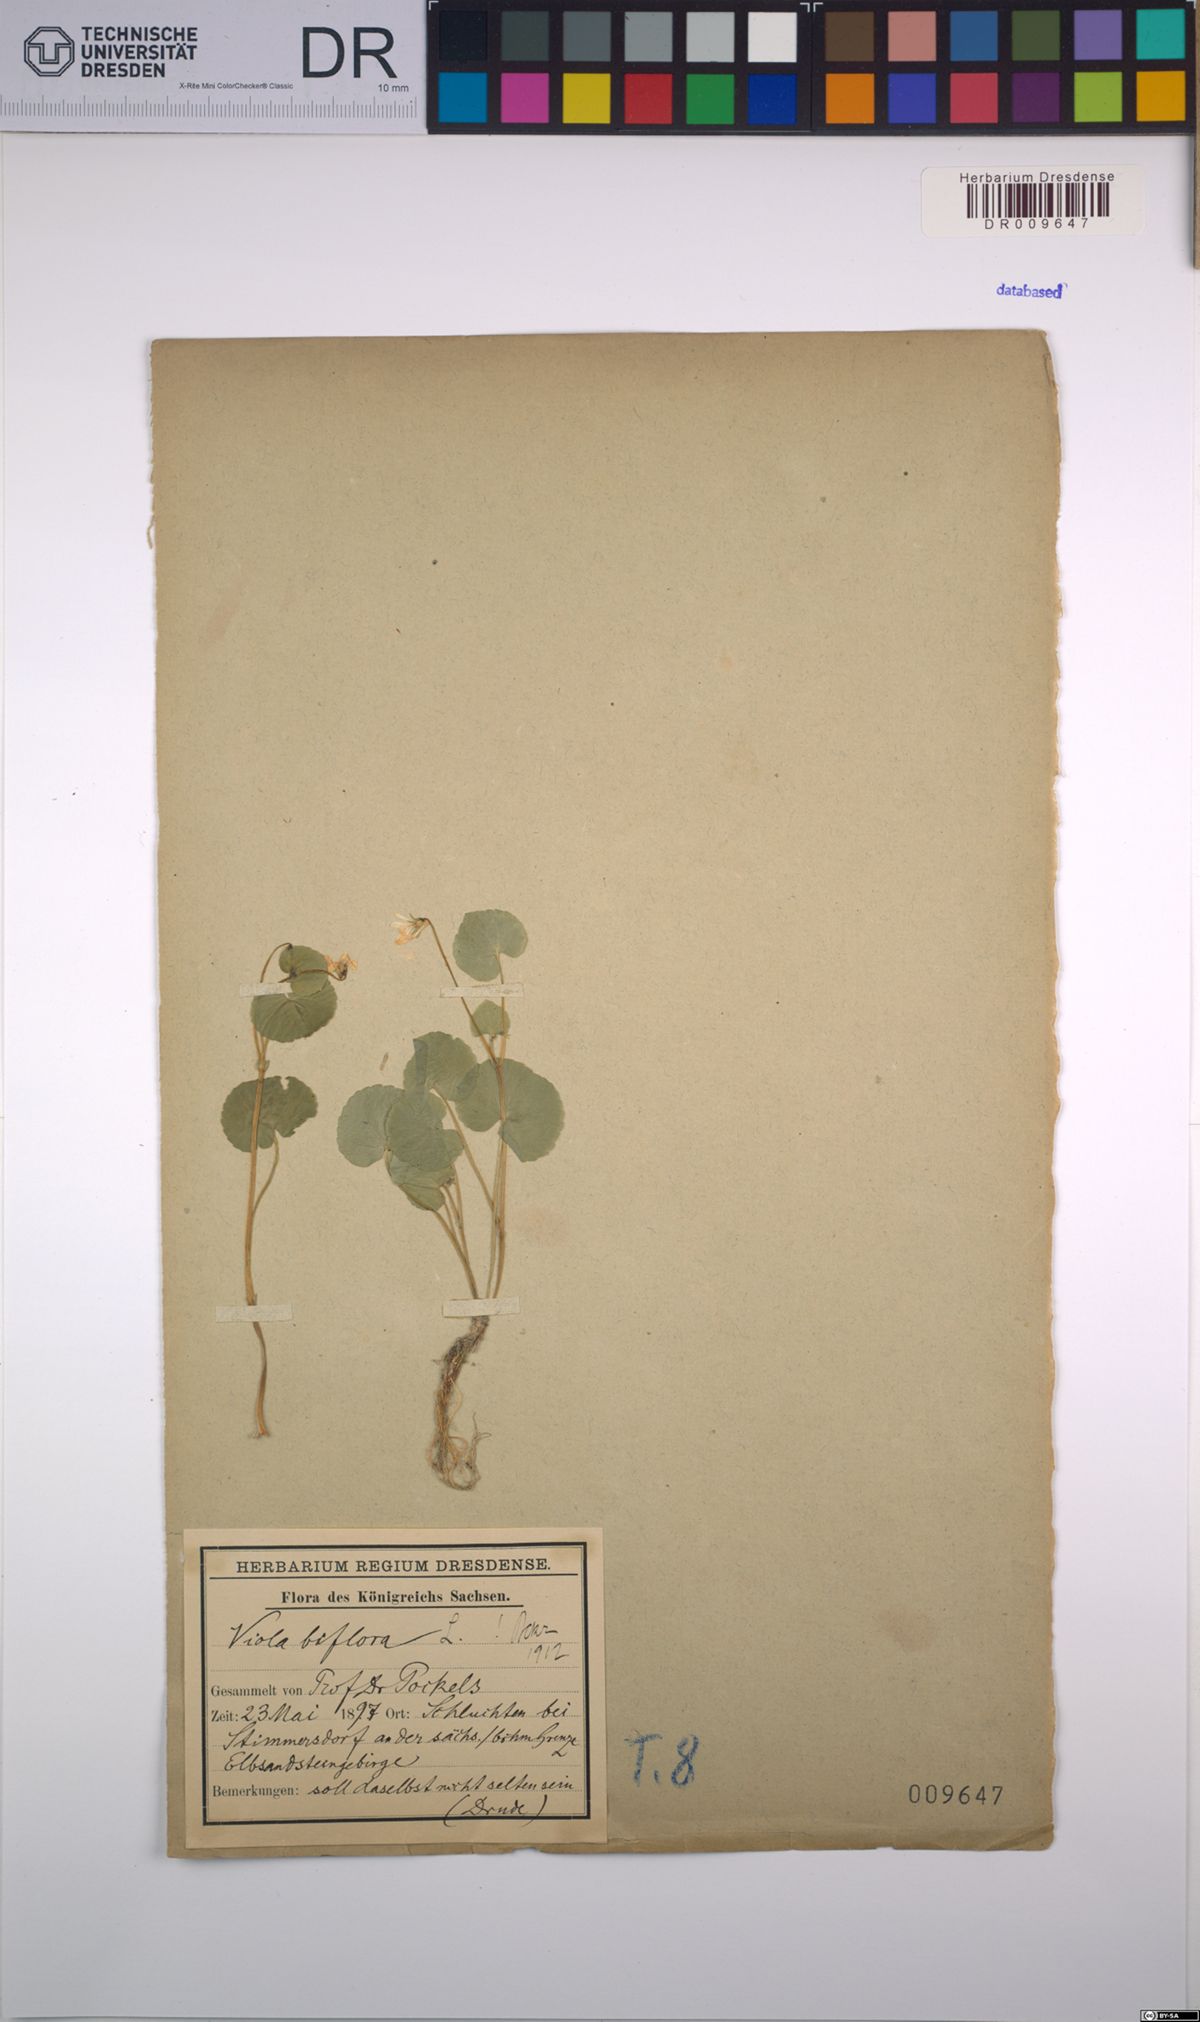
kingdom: Plantae
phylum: Tracheophyta
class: Magnoliopsida
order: Malpighiales
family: Violaceae
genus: Viola
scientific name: Viola biflora
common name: Alpine yellow violet
